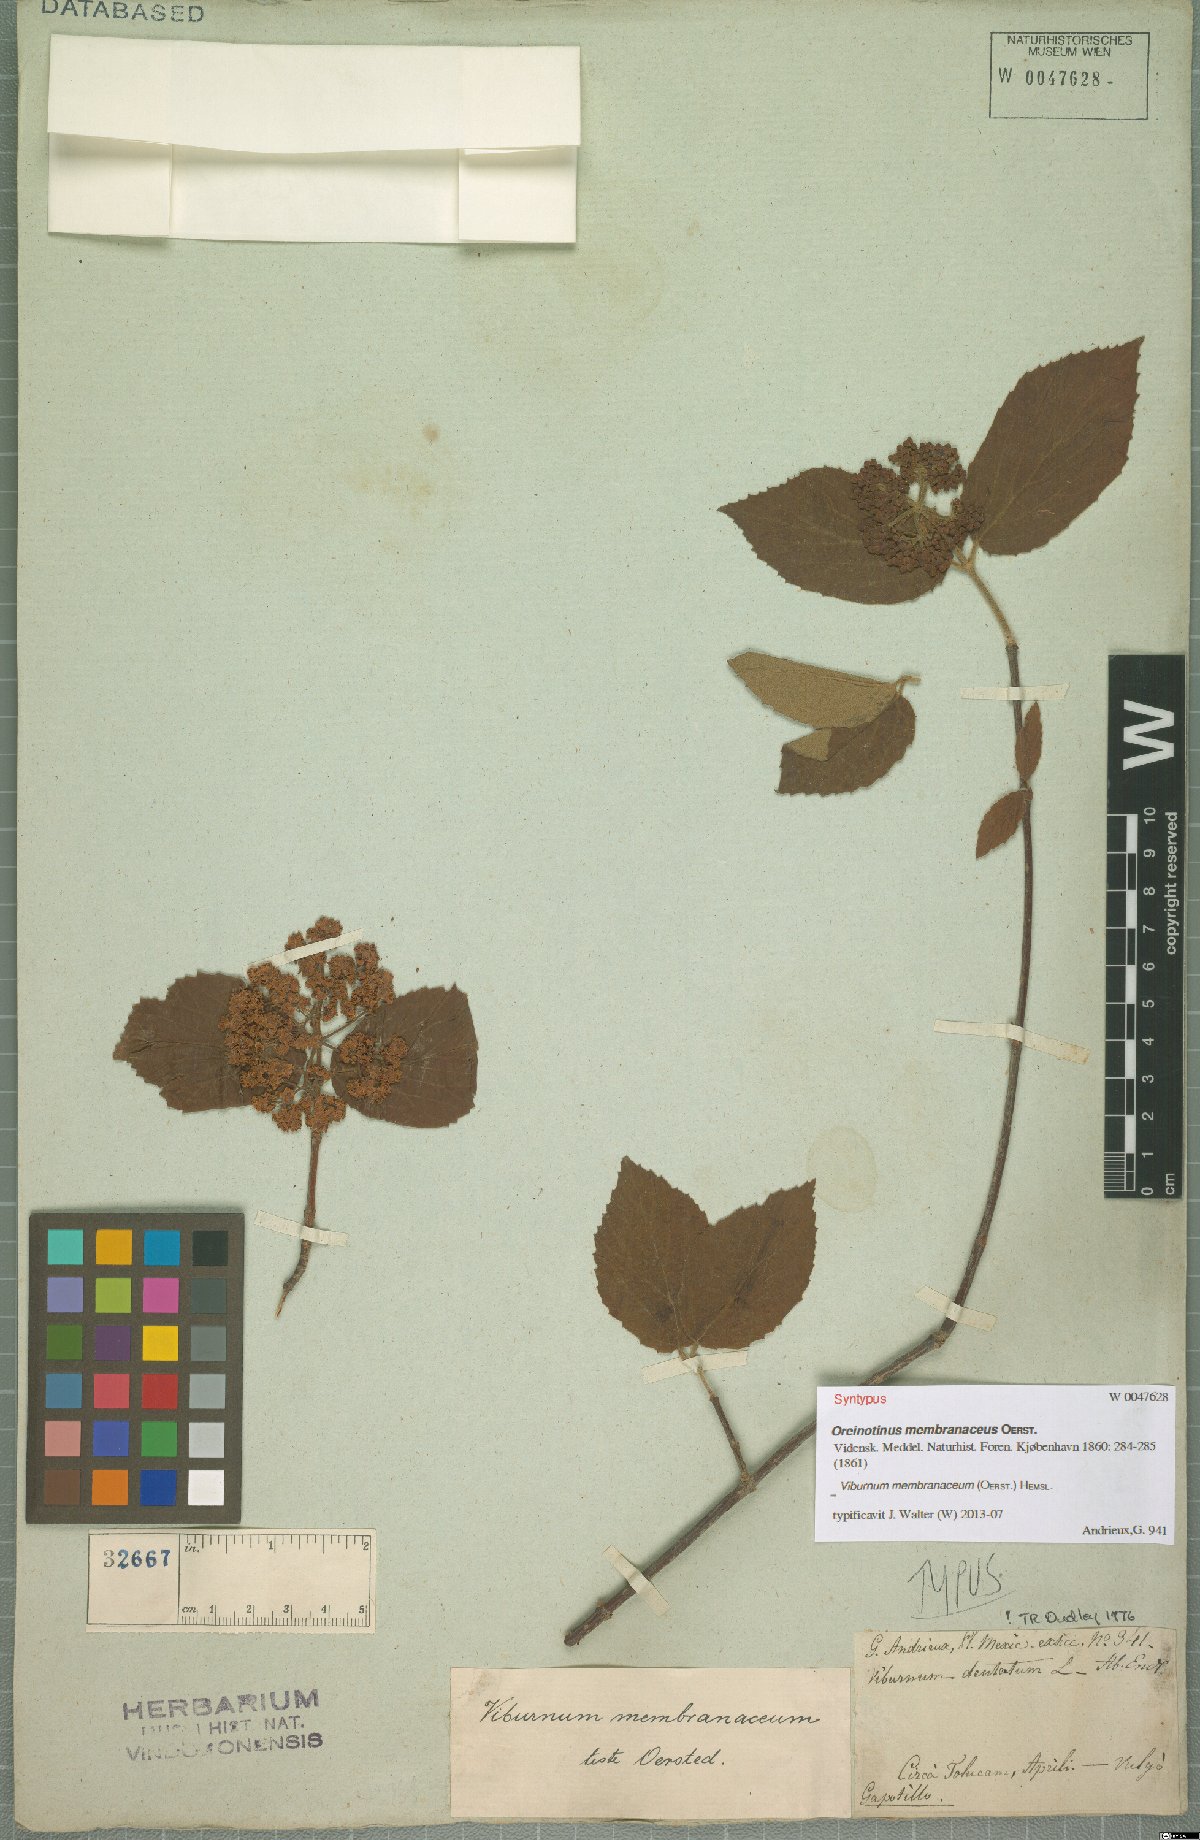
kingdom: Plantae
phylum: Tracheophyta
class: Magnoliopsida
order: Dipsacales
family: Viburnaceae
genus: Viburnum
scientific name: Viburnum macdougallii
